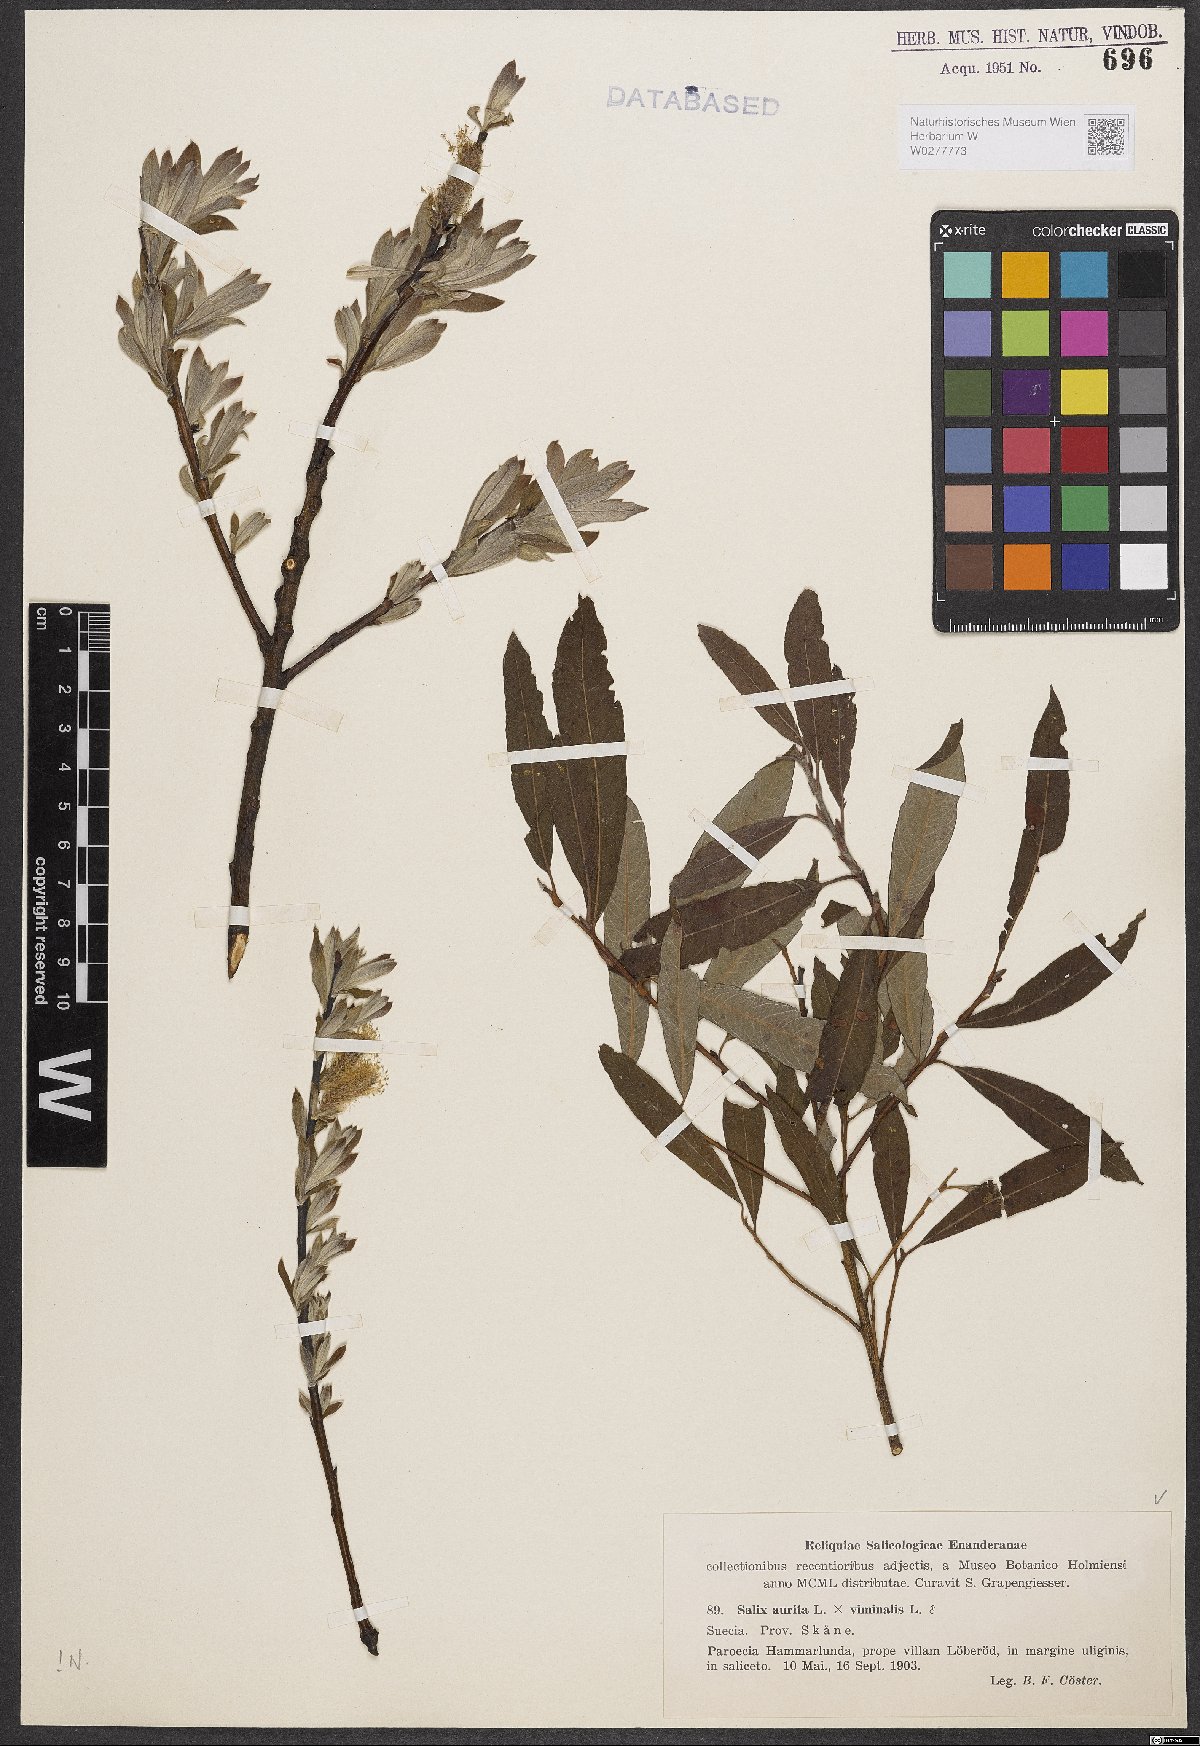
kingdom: Plantae
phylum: Tracheophyta
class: Magnoliopsida
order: Malpighiales
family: Salicaceae
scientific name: Salicaceae
